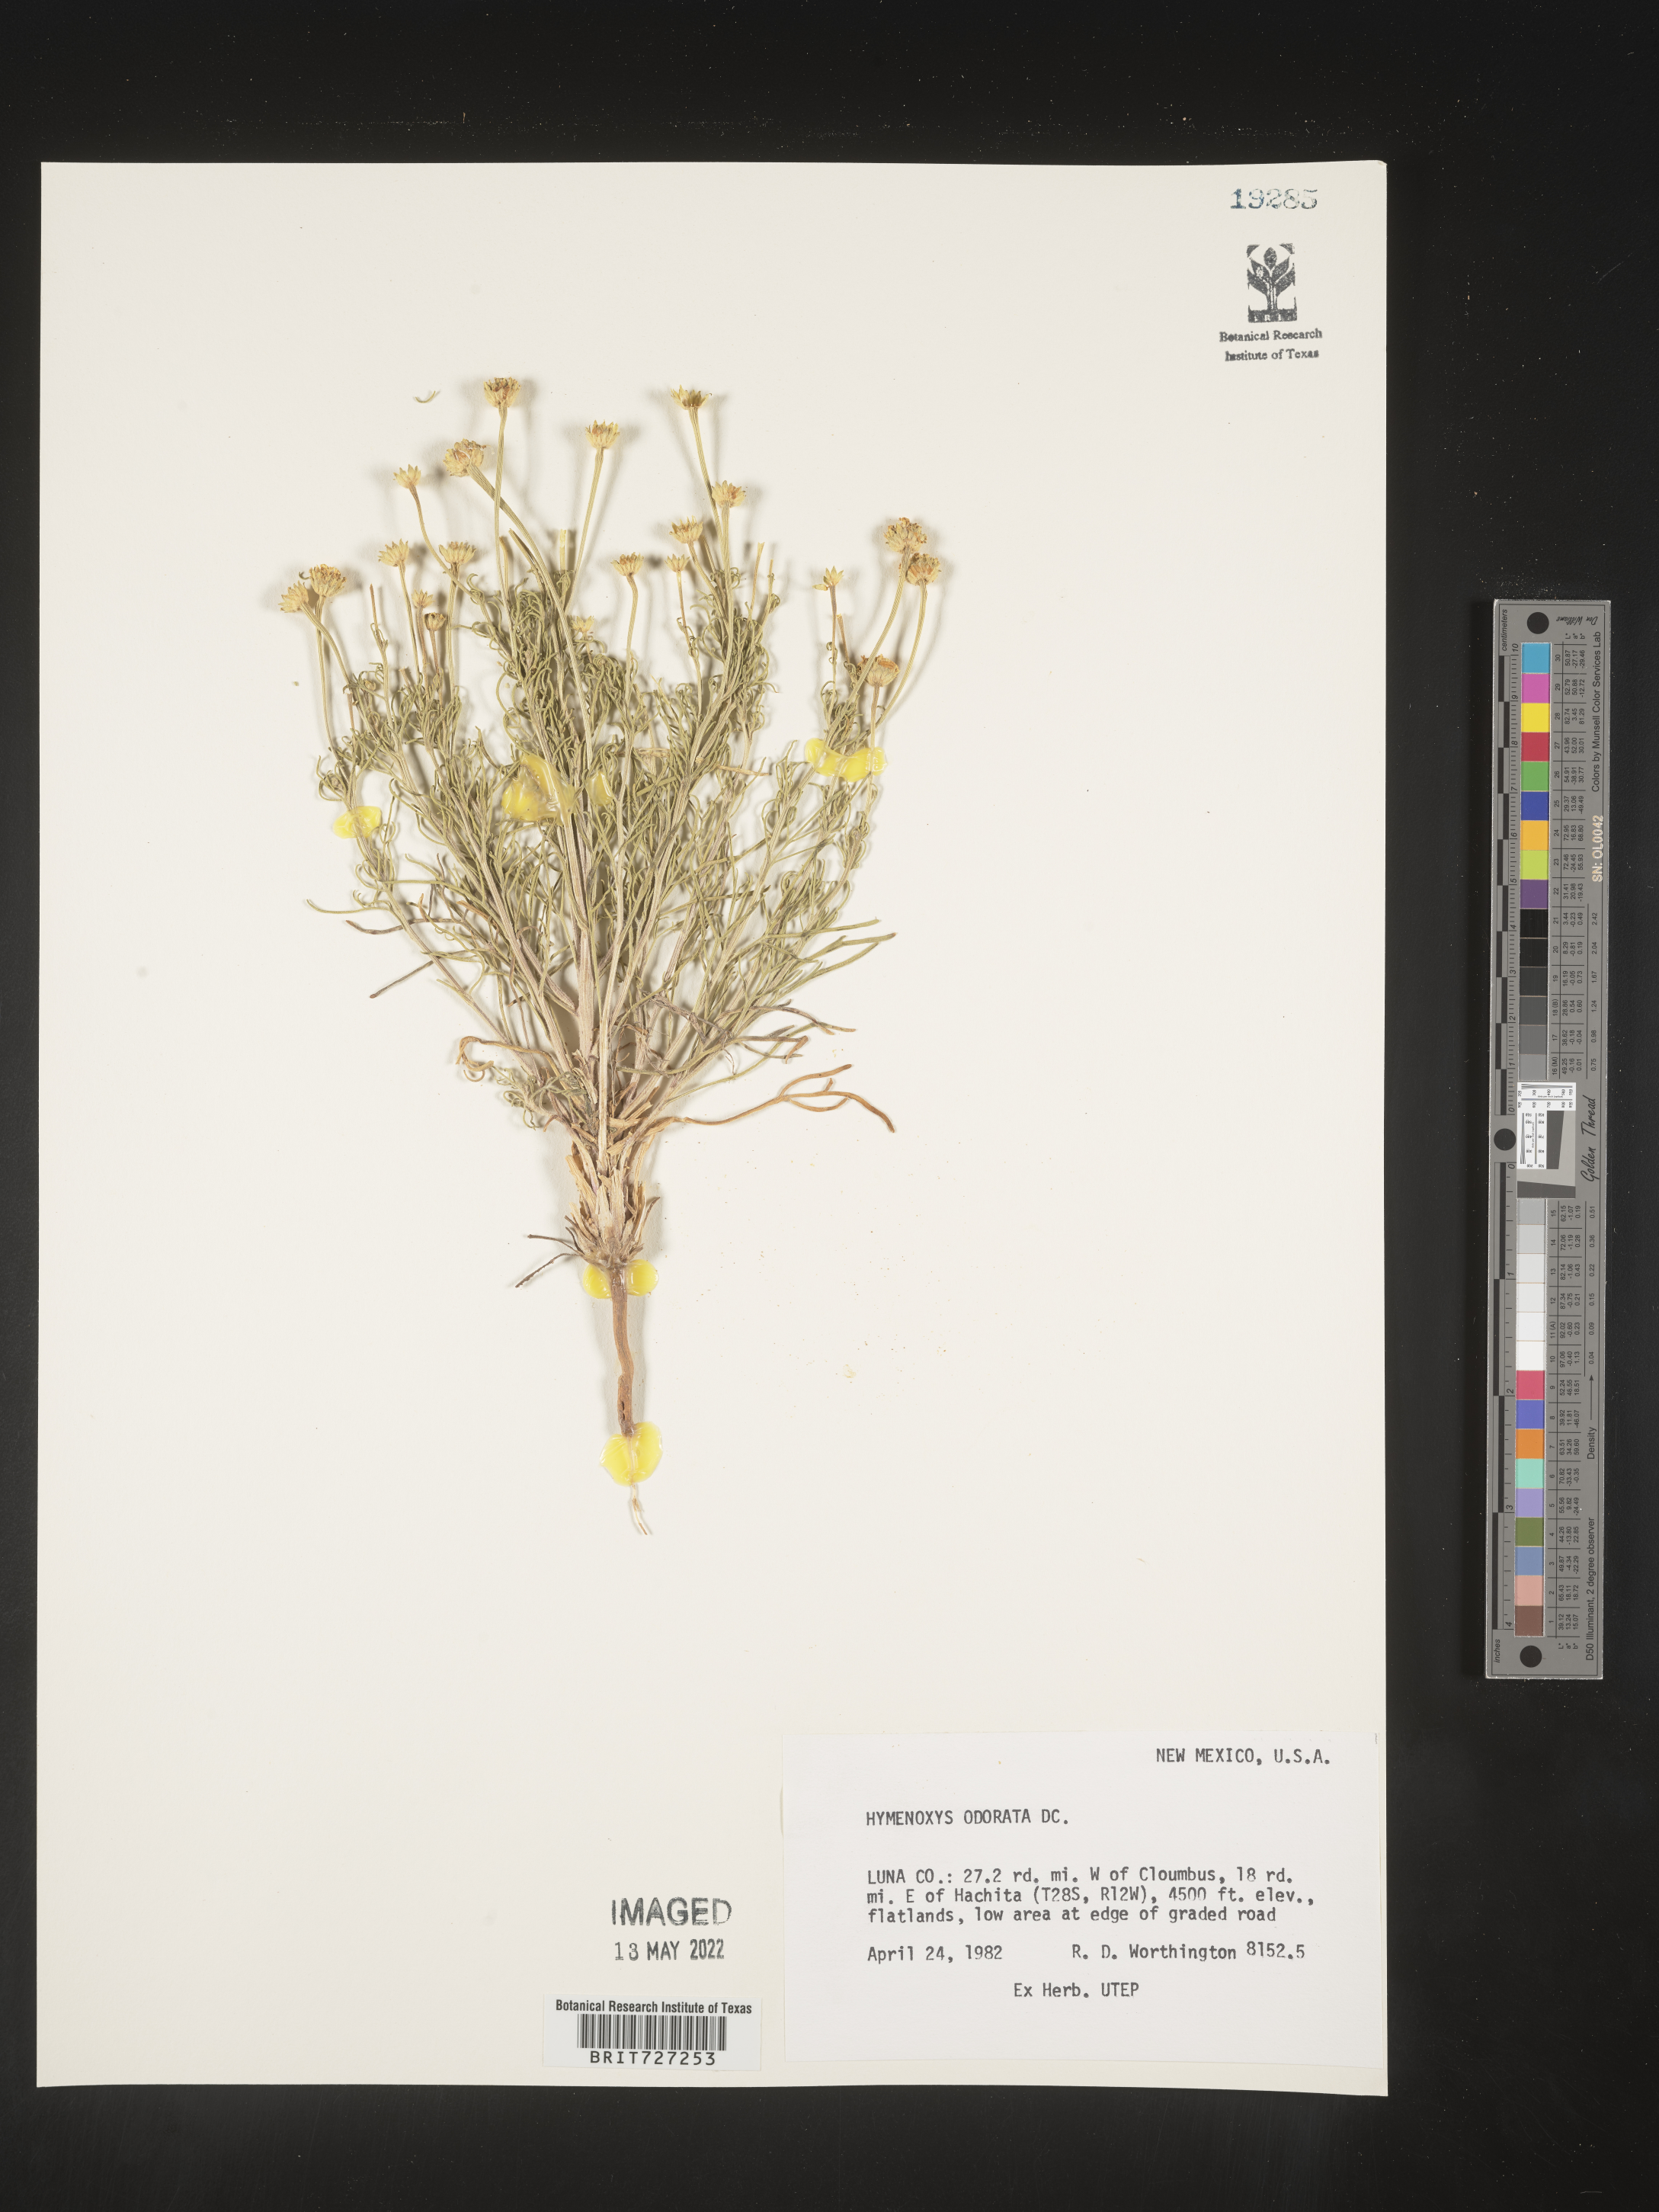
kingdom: Plantae
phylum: Tracheophyta
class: Magnoliopsida
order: Asterales
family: Asteraceae
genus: Hymenoxys
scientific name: Hymenoxys odorata
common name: Bitter rubberweed
